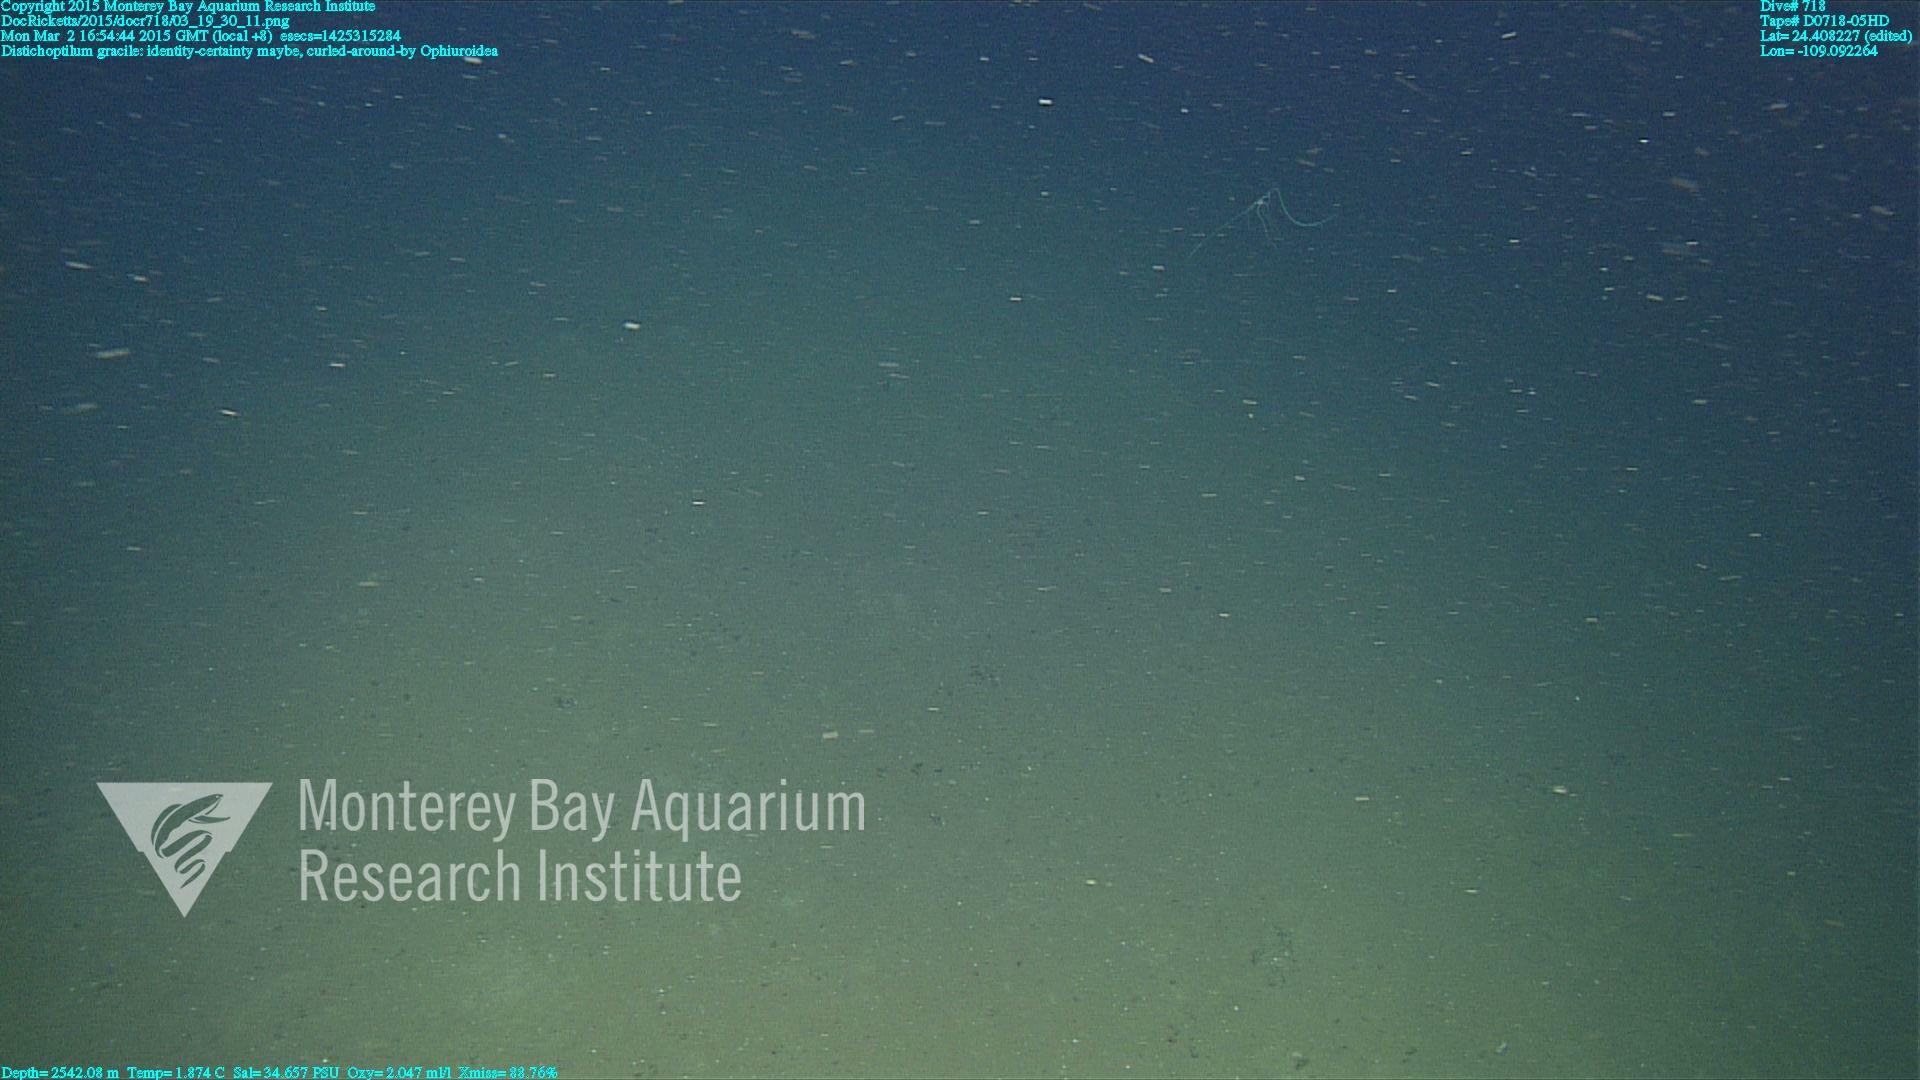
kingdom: Animalia
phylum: Cnidaria
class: Anthozoa
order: Scleralcyonacea
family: Protoptilidae
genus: Distichoptilum
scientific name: Distichoptilum gracile
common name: Slender sea pen
